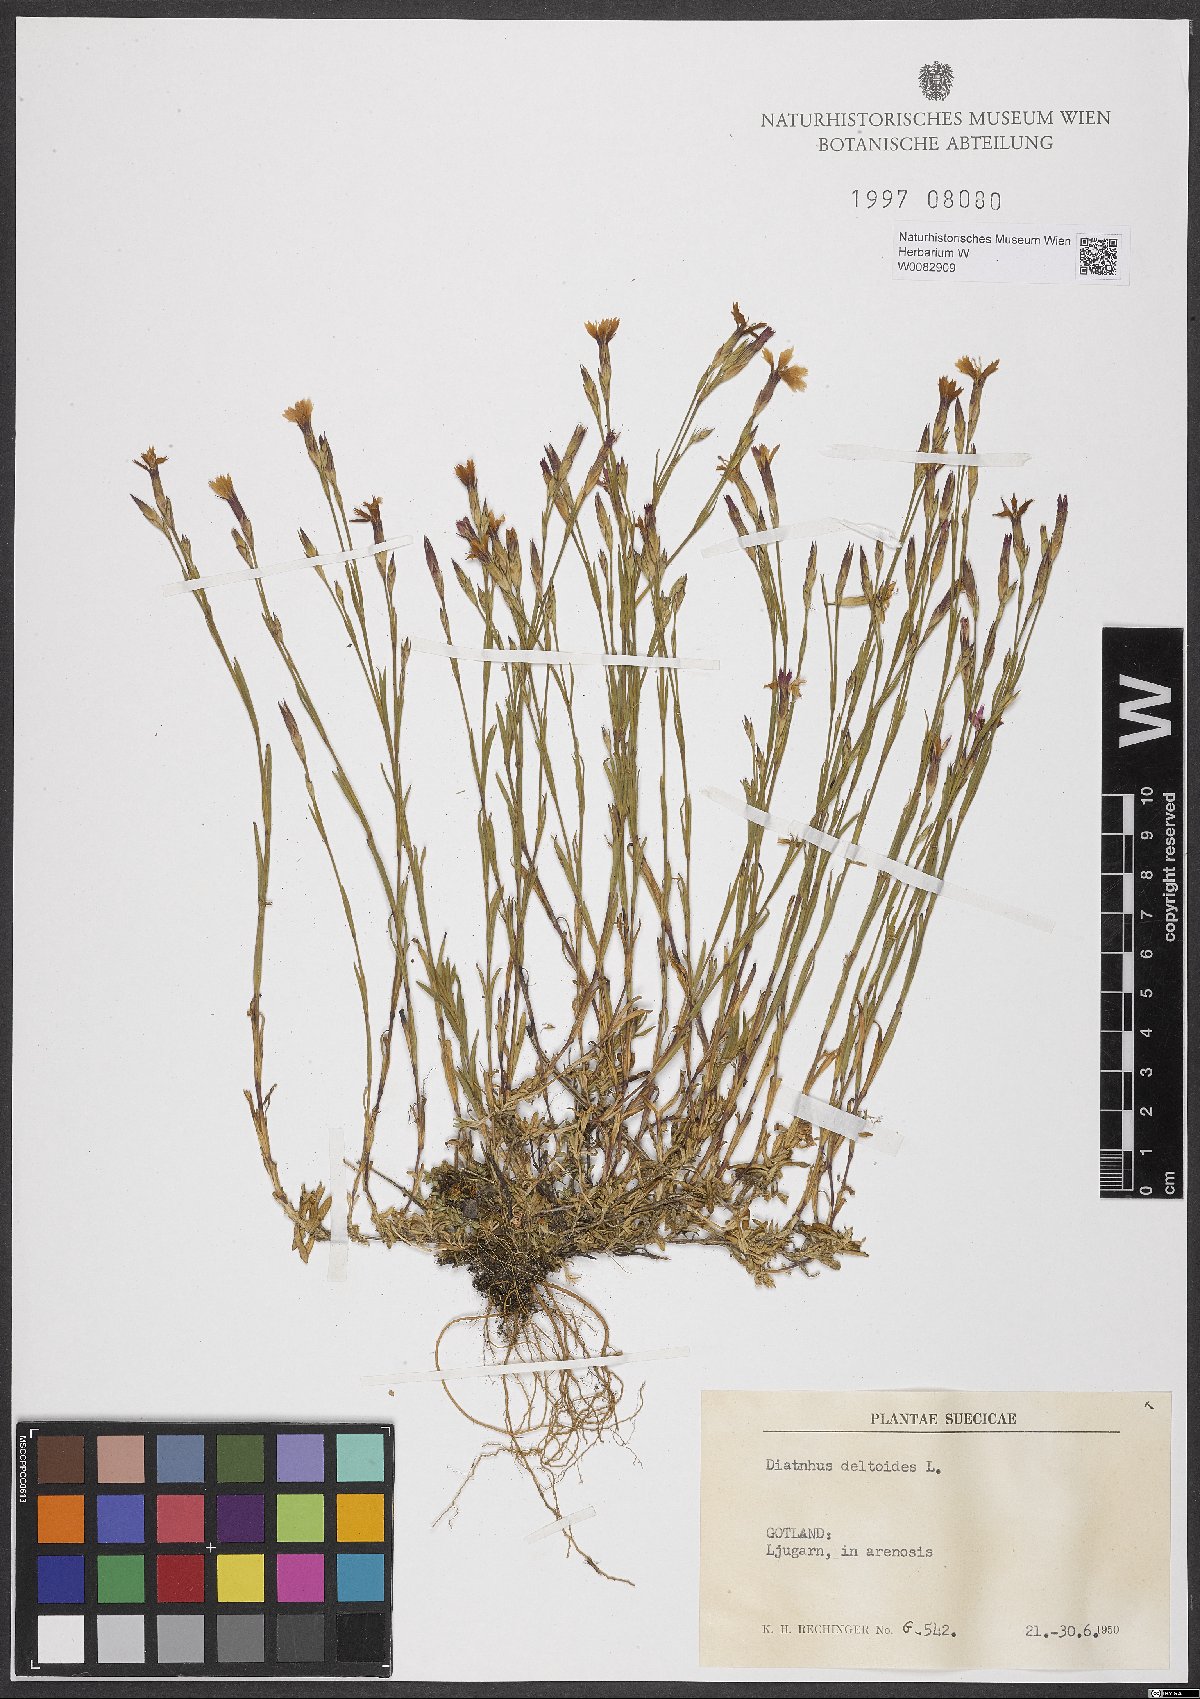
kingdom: Plantae
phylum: Tracheophyta
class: Magnoliopsida
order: Caryophyllales
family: Caryophyllaceae
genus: Dianthus
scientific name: Dianthus deltoides
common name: Maiden pink
